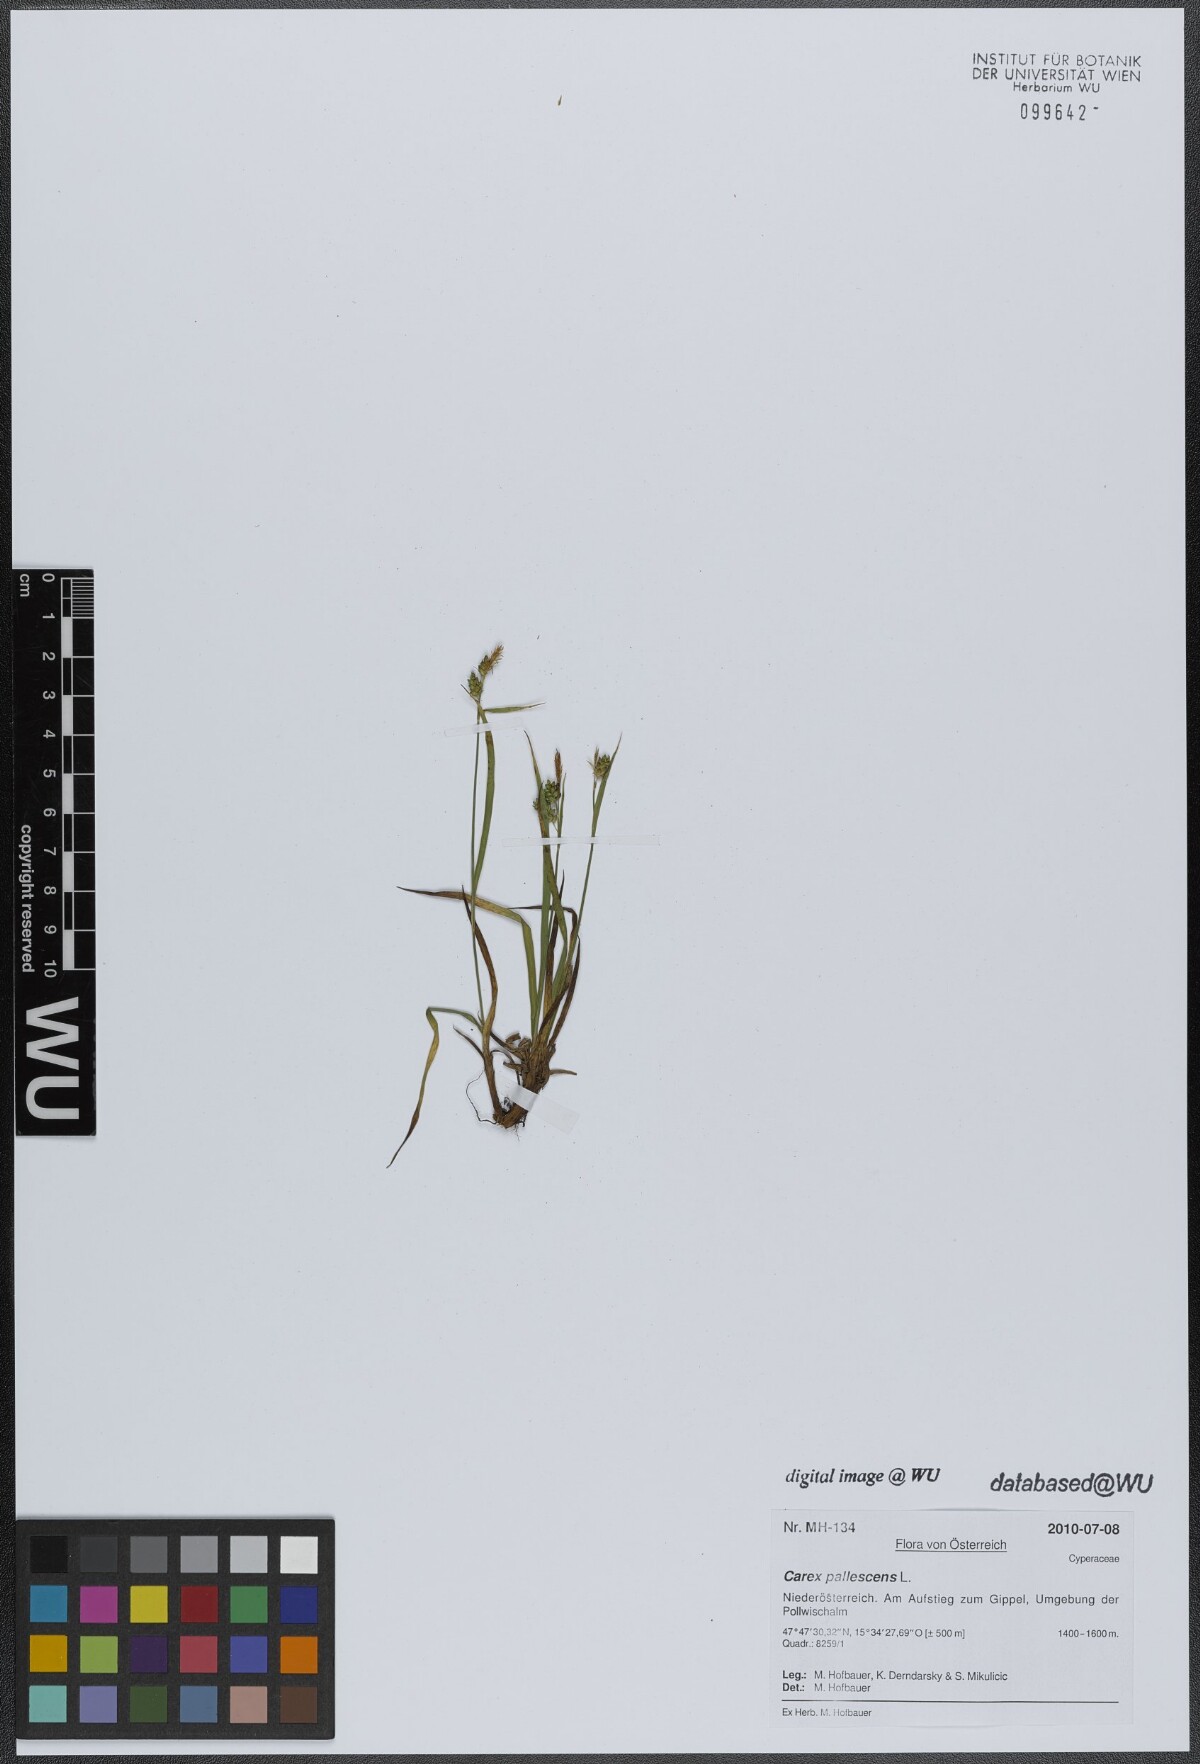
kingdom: Plantae
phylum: Tracheophyta
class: Liliopsida
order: Poales
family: Cyperaceae
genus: Carex
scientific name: Carex pallescens
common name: Pale sedge
